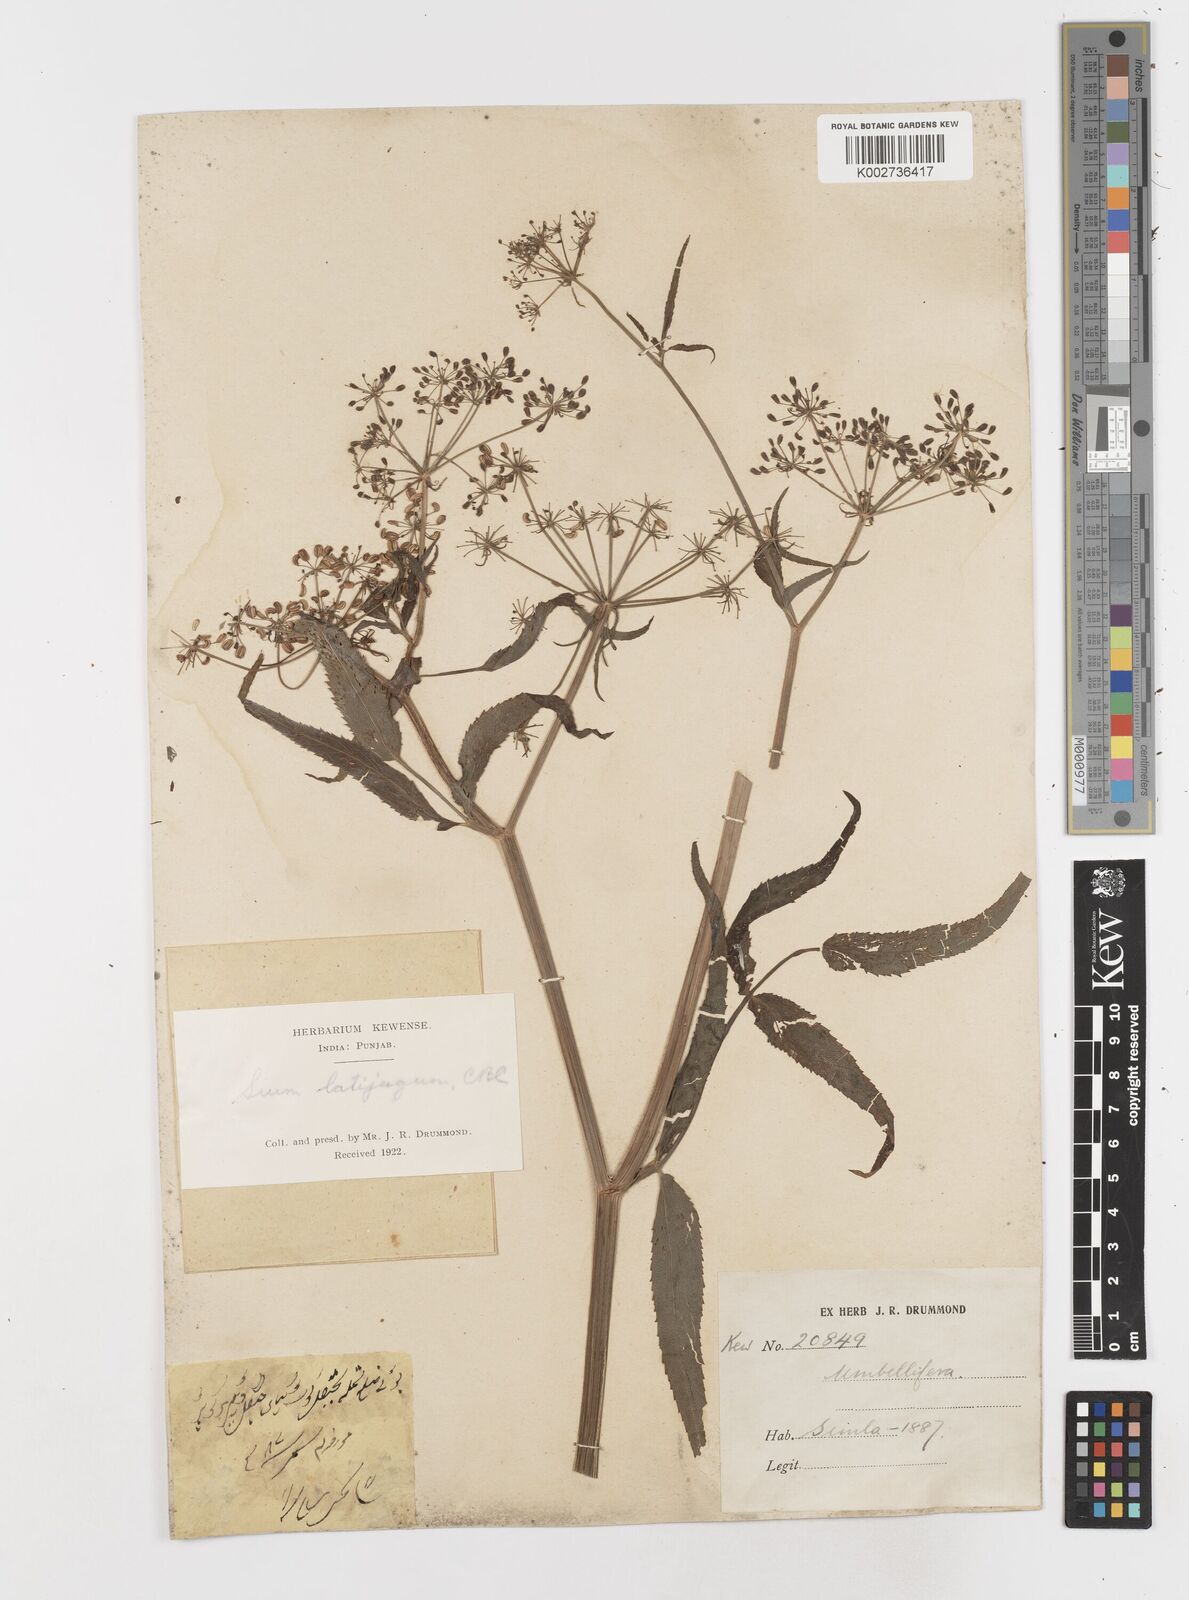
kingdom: Plantae
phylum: Tracheophyta
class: Magnoliopsida
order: Apiales
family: Apiaceae
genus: Sium
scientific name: Sium sisarum
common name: Skirret
